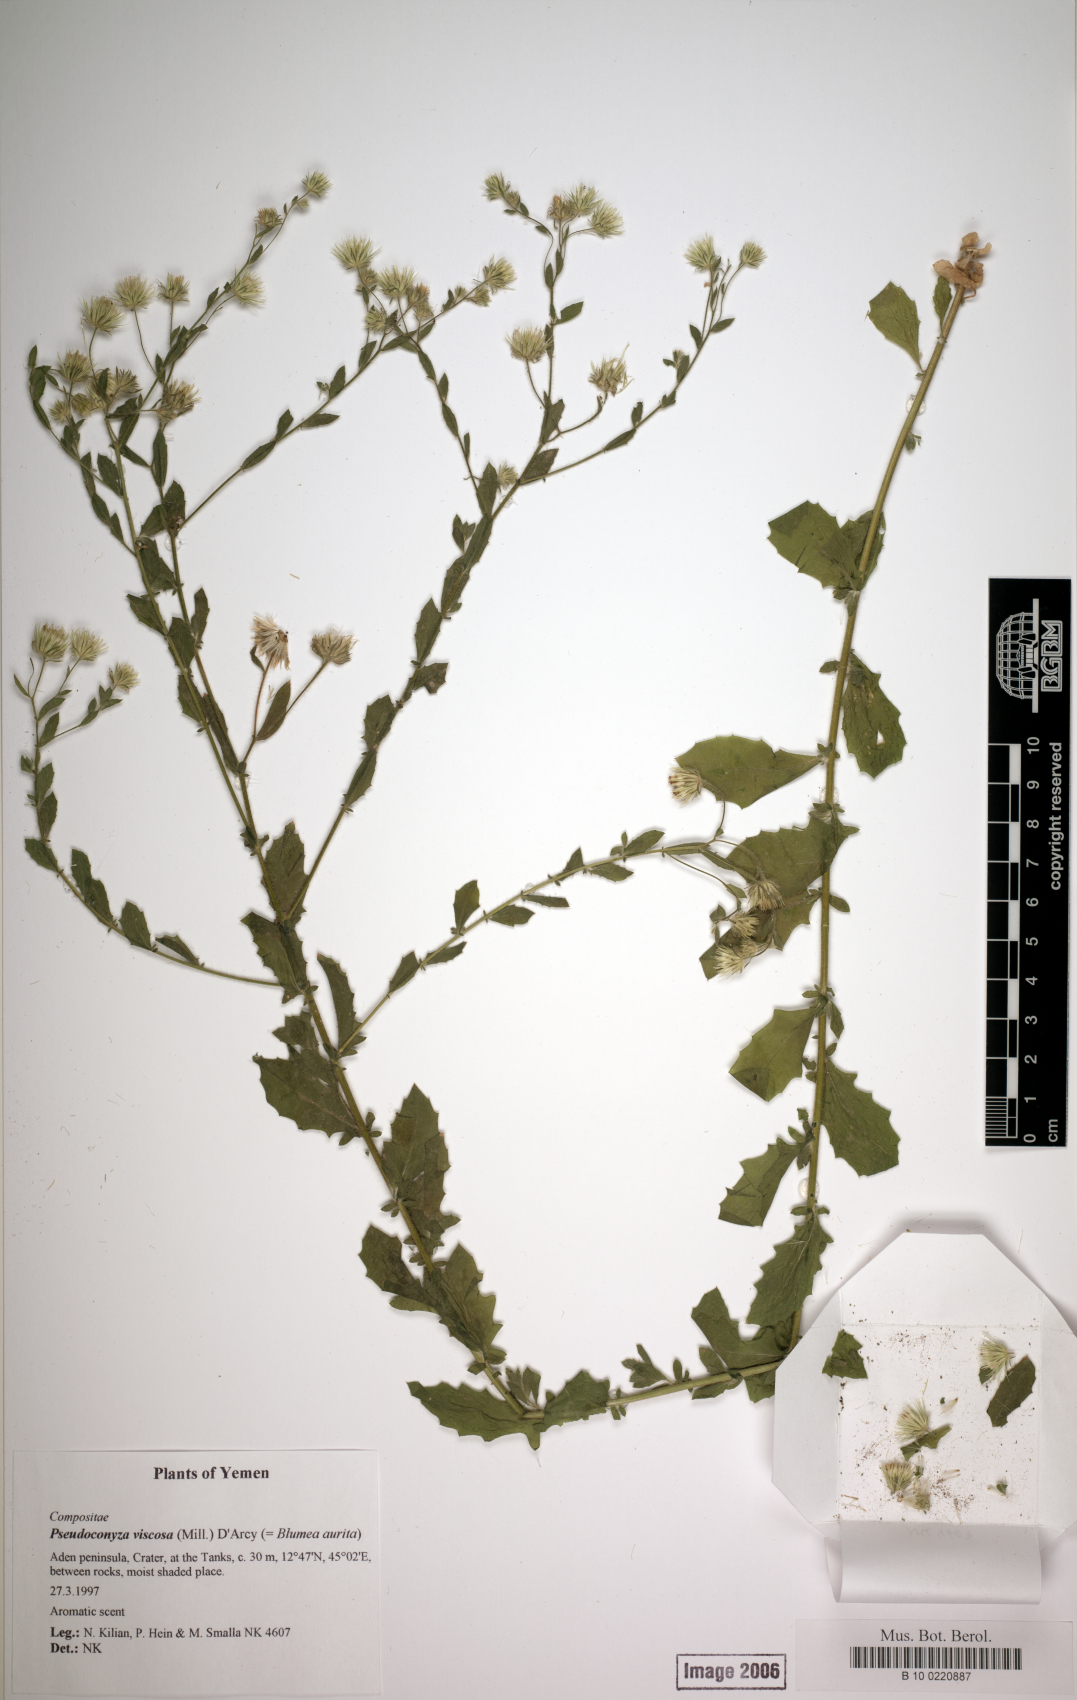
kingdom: Plantae
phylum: Tracheophyta
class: Magnoliopsida
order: Asterales
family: Asteraceae
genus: Pseudoconyza
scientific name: Pseudoconyza viscosa
